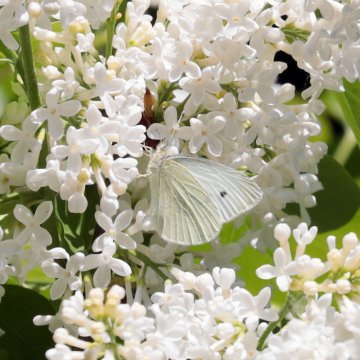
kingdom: Animalia
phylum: Arthropoda
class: Insecta
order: Lepidoptera
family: Pieridae
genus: Pieris
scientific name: Pieris rapae
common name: Cabbage White
